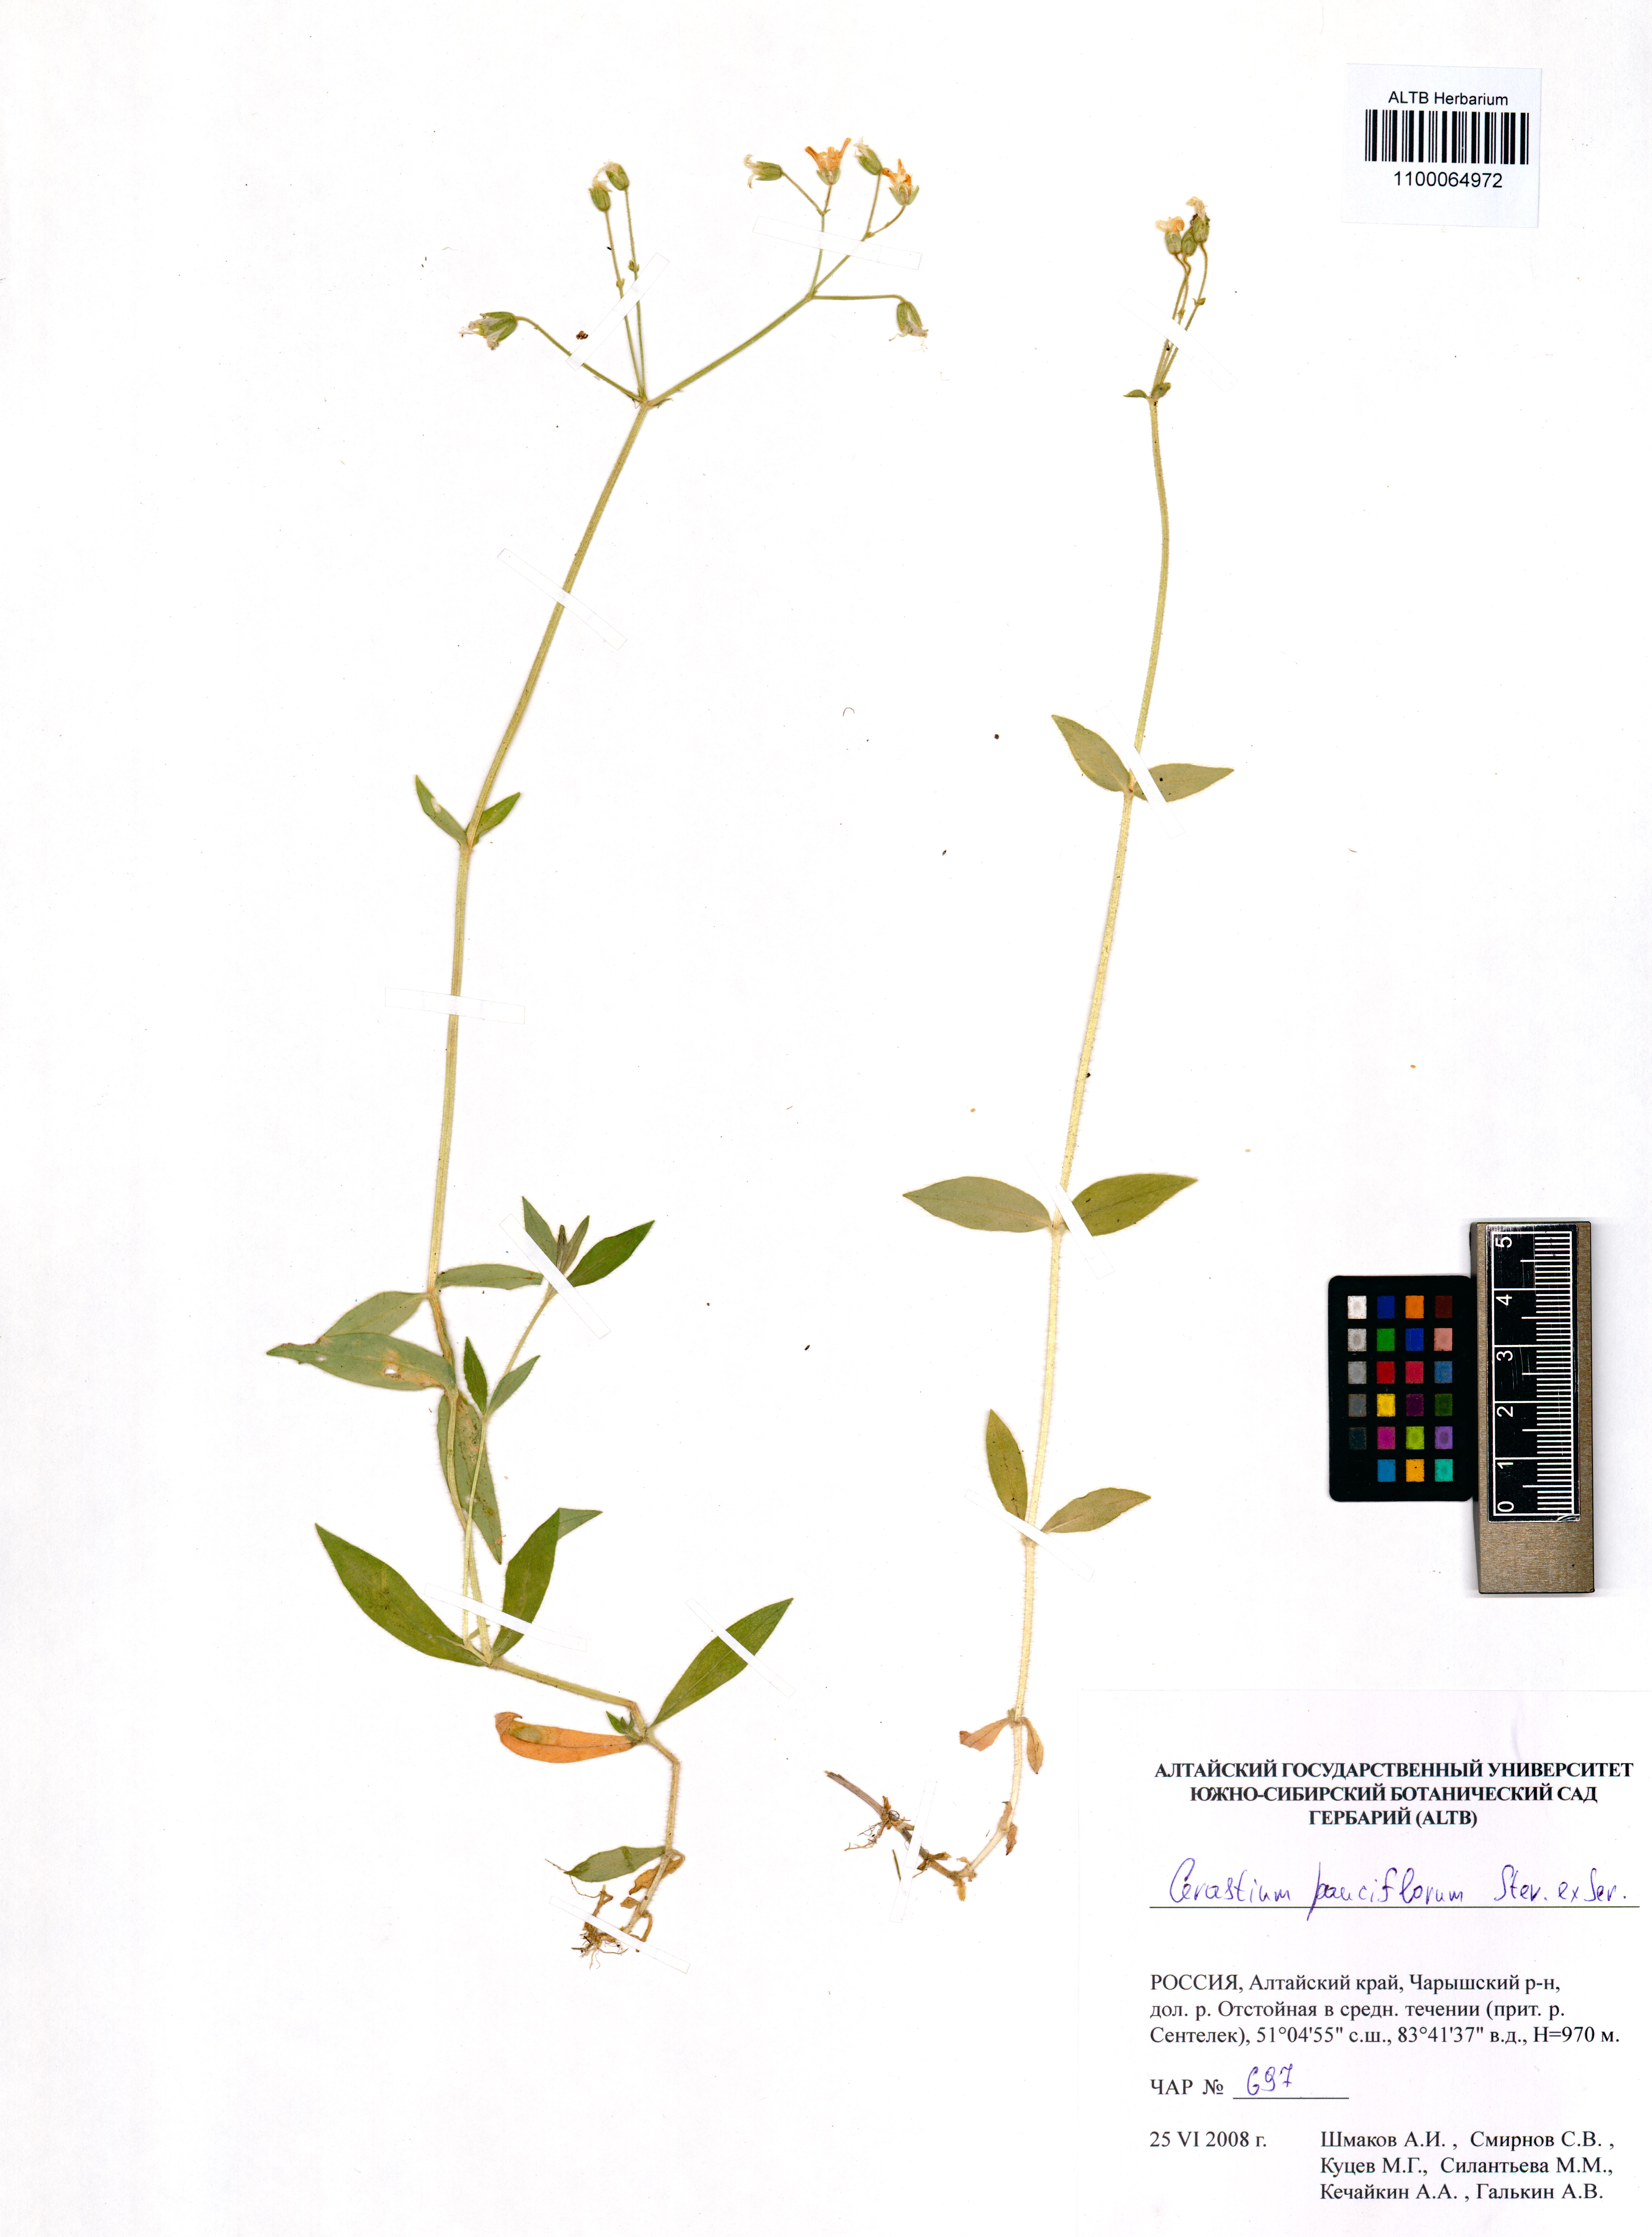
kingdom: Plantae
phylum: Tracheophyta
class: Magnoliopsida
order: Caryophyllales
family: Caryophyllaceae
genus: Cerastium
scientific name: Cerastium pauciflorum
